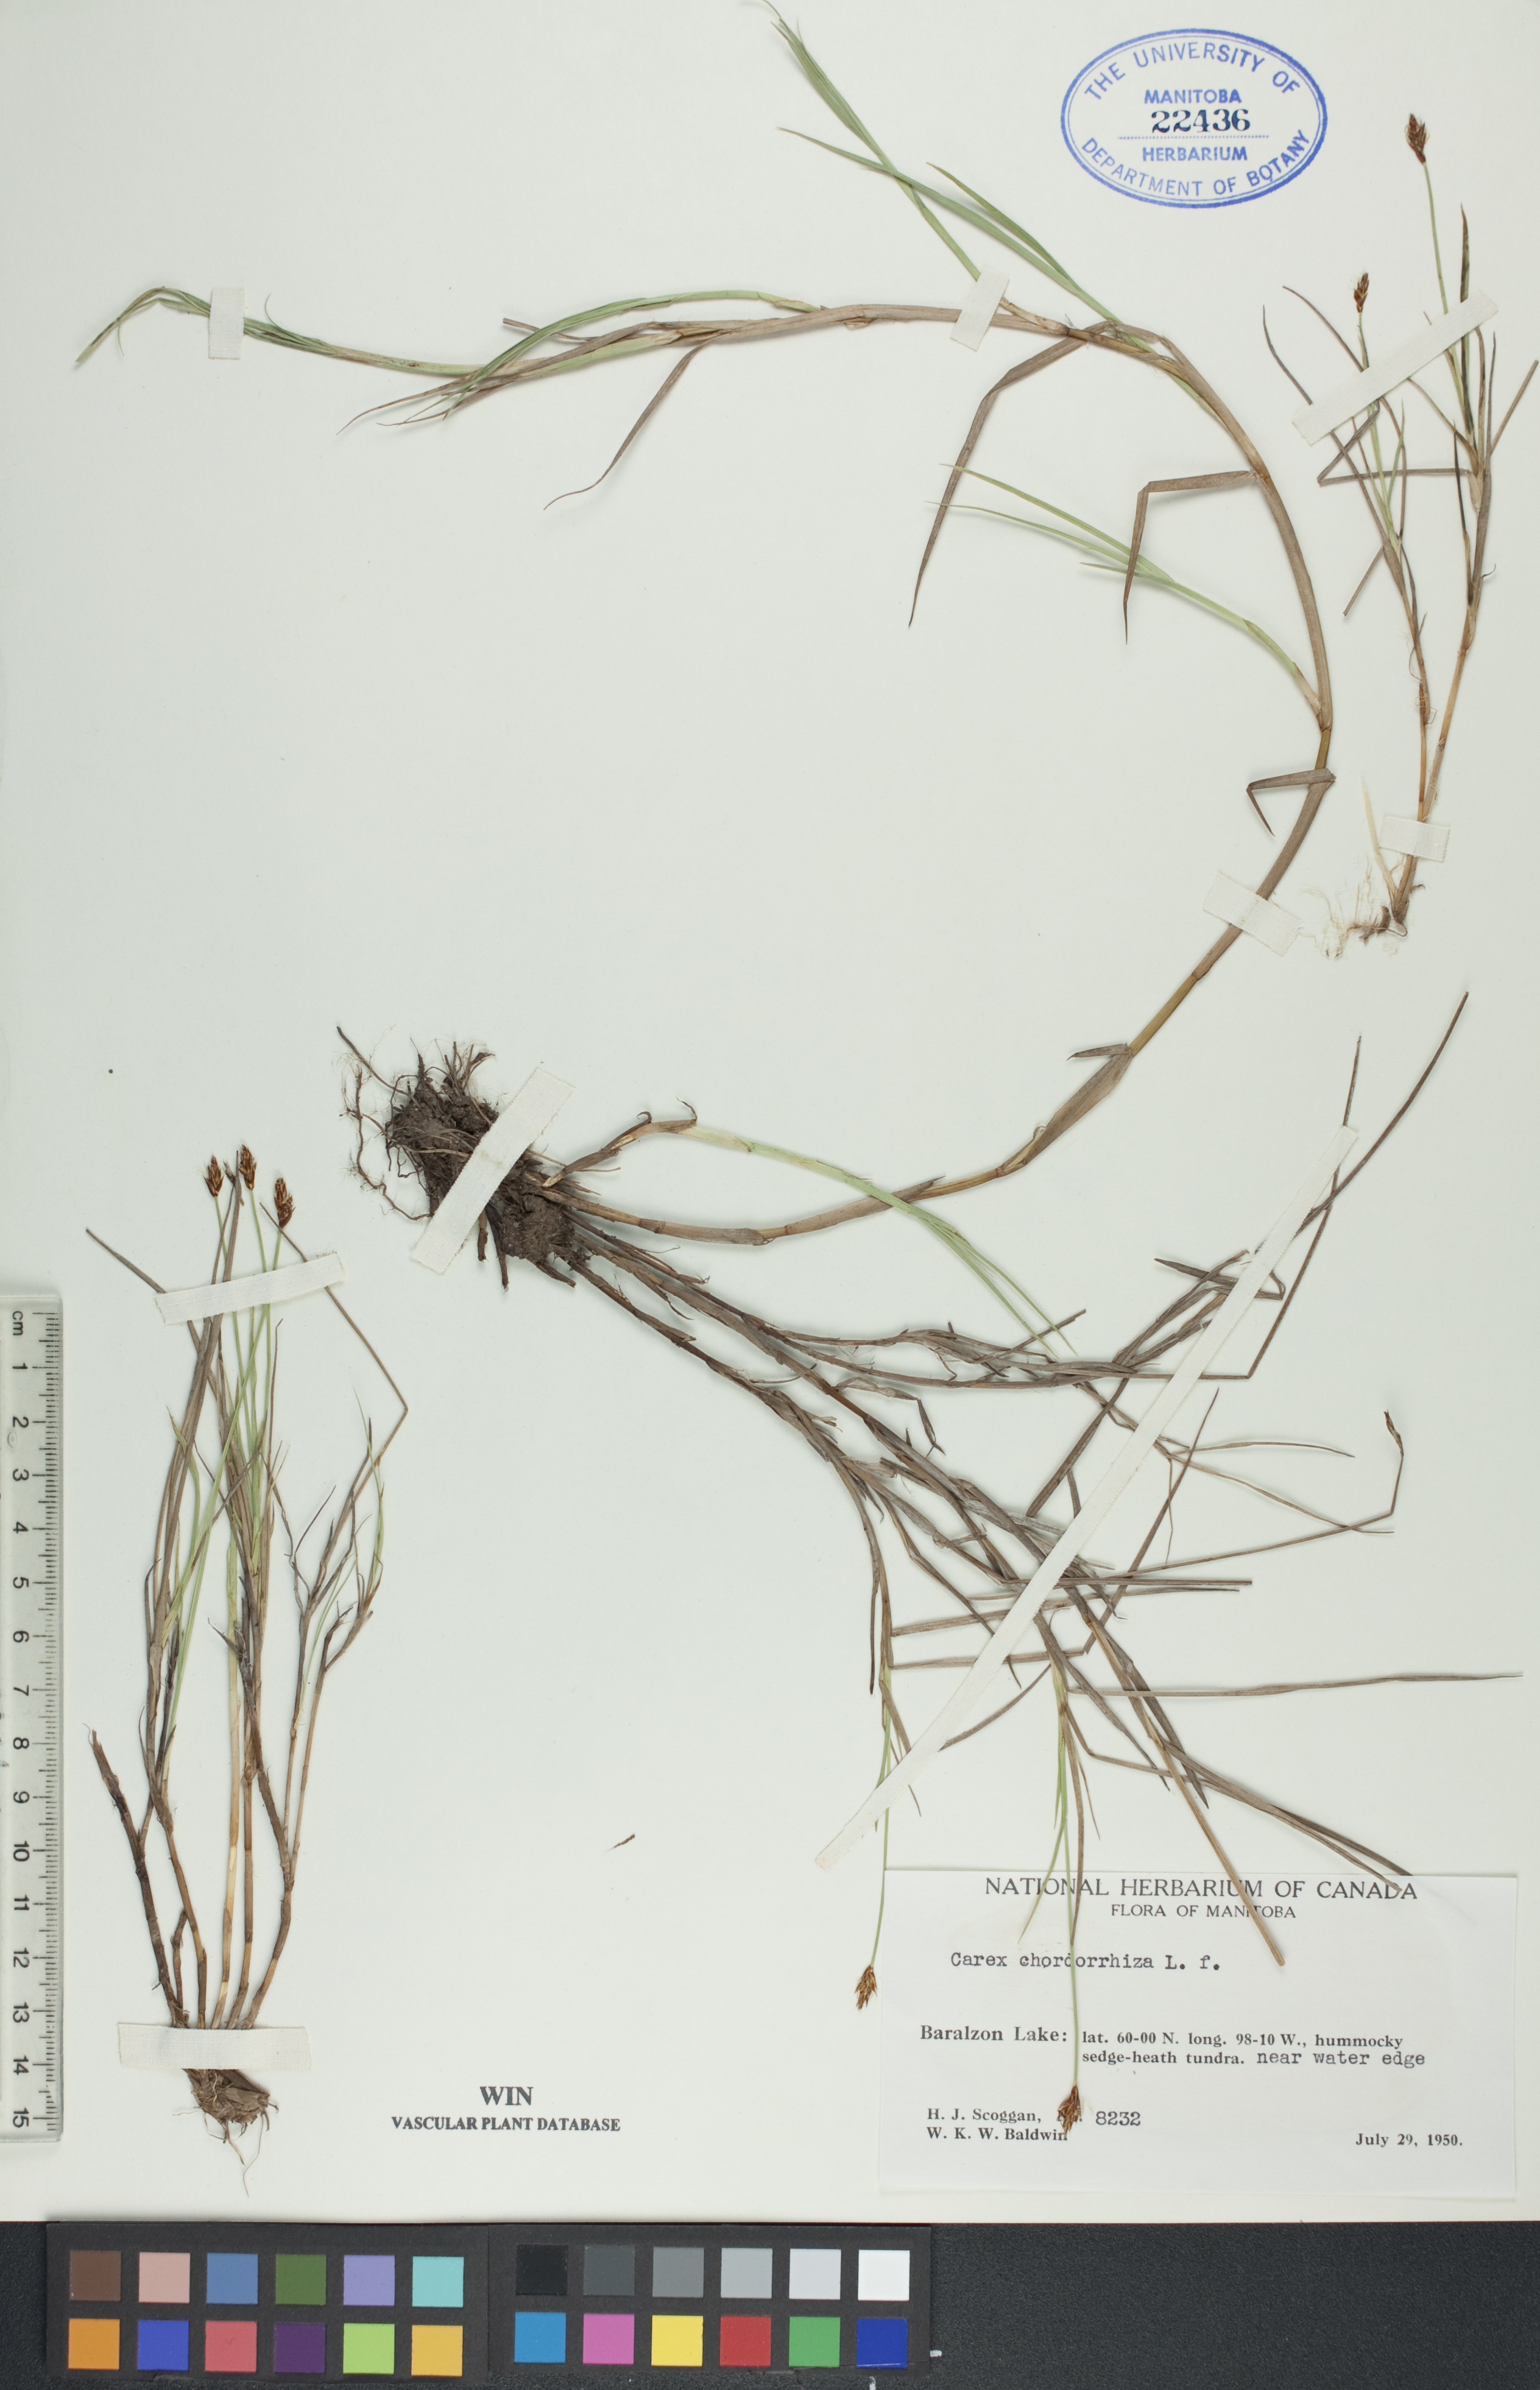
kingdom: Plantae
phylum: Tracheophyta
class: Liliopsida
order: Poales
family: Cyperaceae
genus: Carex
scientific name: Carex chordorrhiza
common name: String sedge
